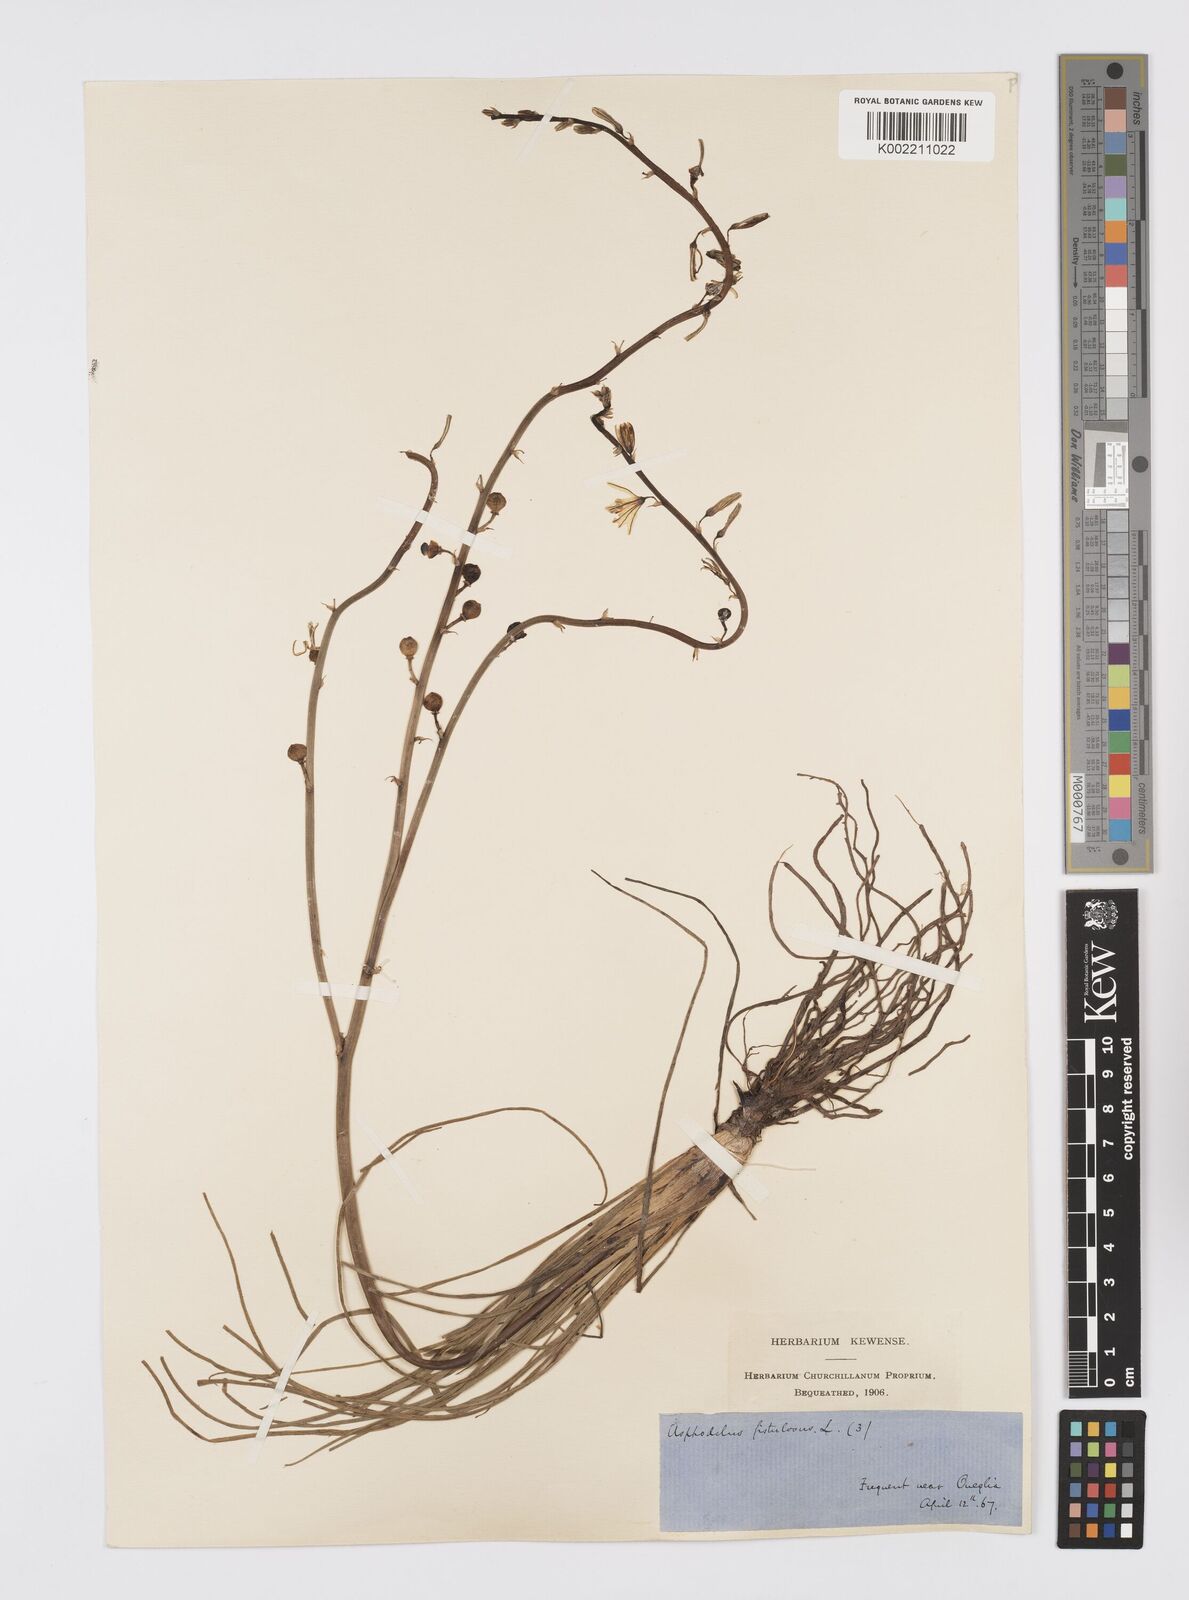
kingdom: Plantae
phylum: Tracheophyta
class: Liliopsida
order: Asparagales
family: Asphodelaceae
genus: Asphodelus
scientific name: Asphodelus fistulosus
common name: Onionweed
